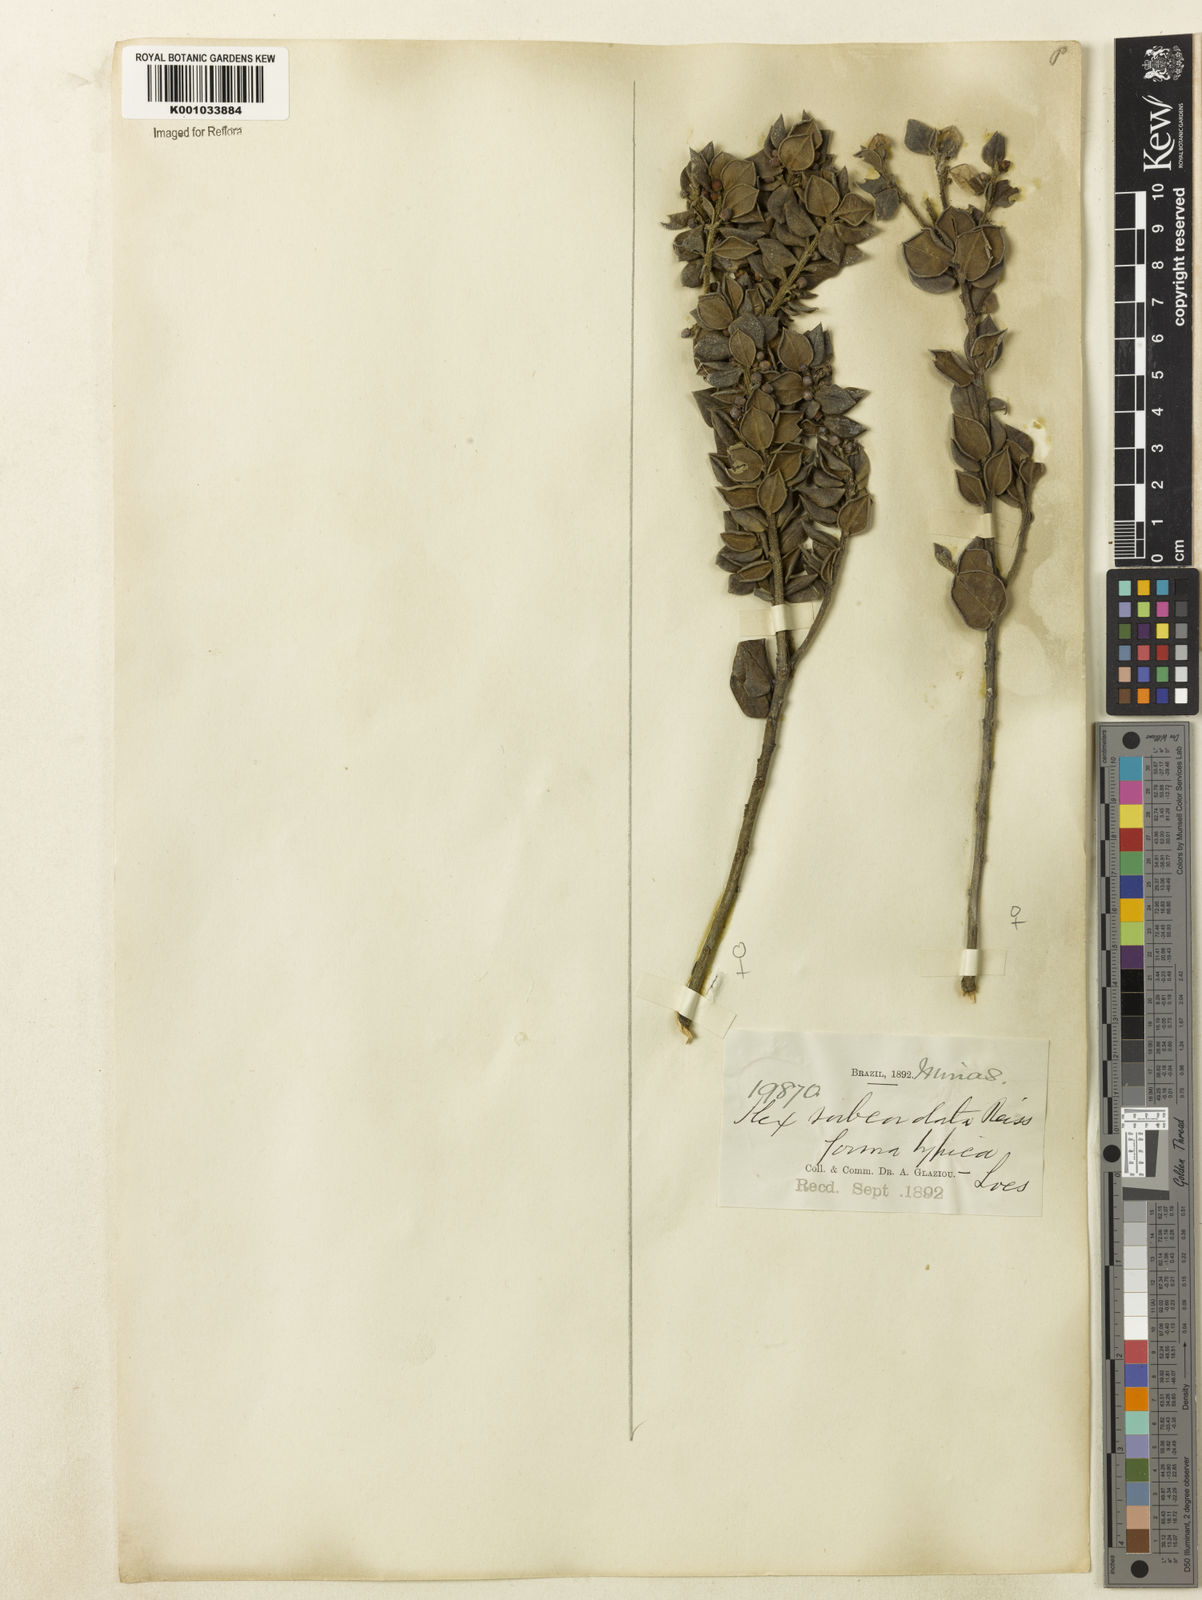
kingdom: Plantae
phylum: Tracheophyta
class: Magnoliopsida
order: Aquifoliales
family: Aquifoliaceae
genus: Ilex
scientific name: Ilex subcordata
